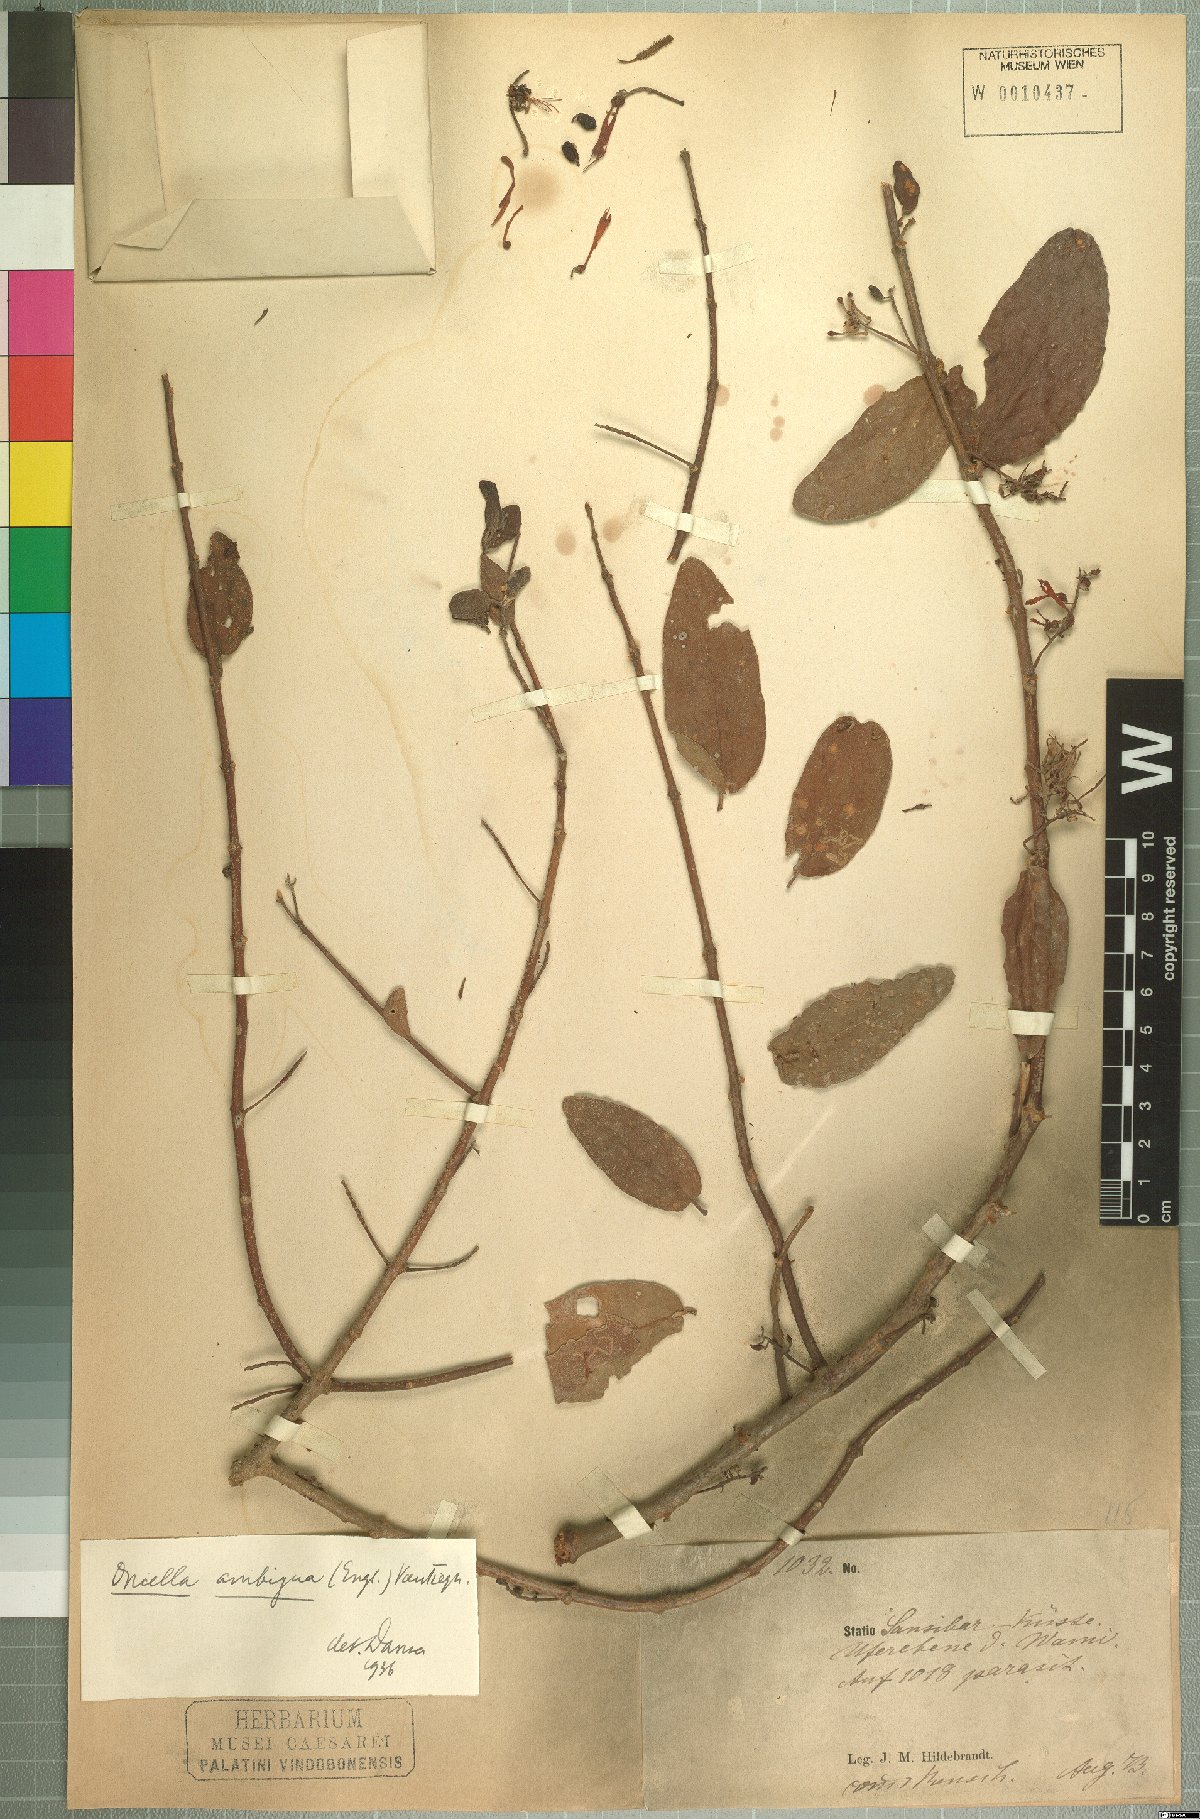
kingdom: Plantae
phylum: Tracheophyta
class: Magnoliopsida
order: Santalales
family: Loranthaceae
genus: Oncella
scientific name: Oncella ambigua
